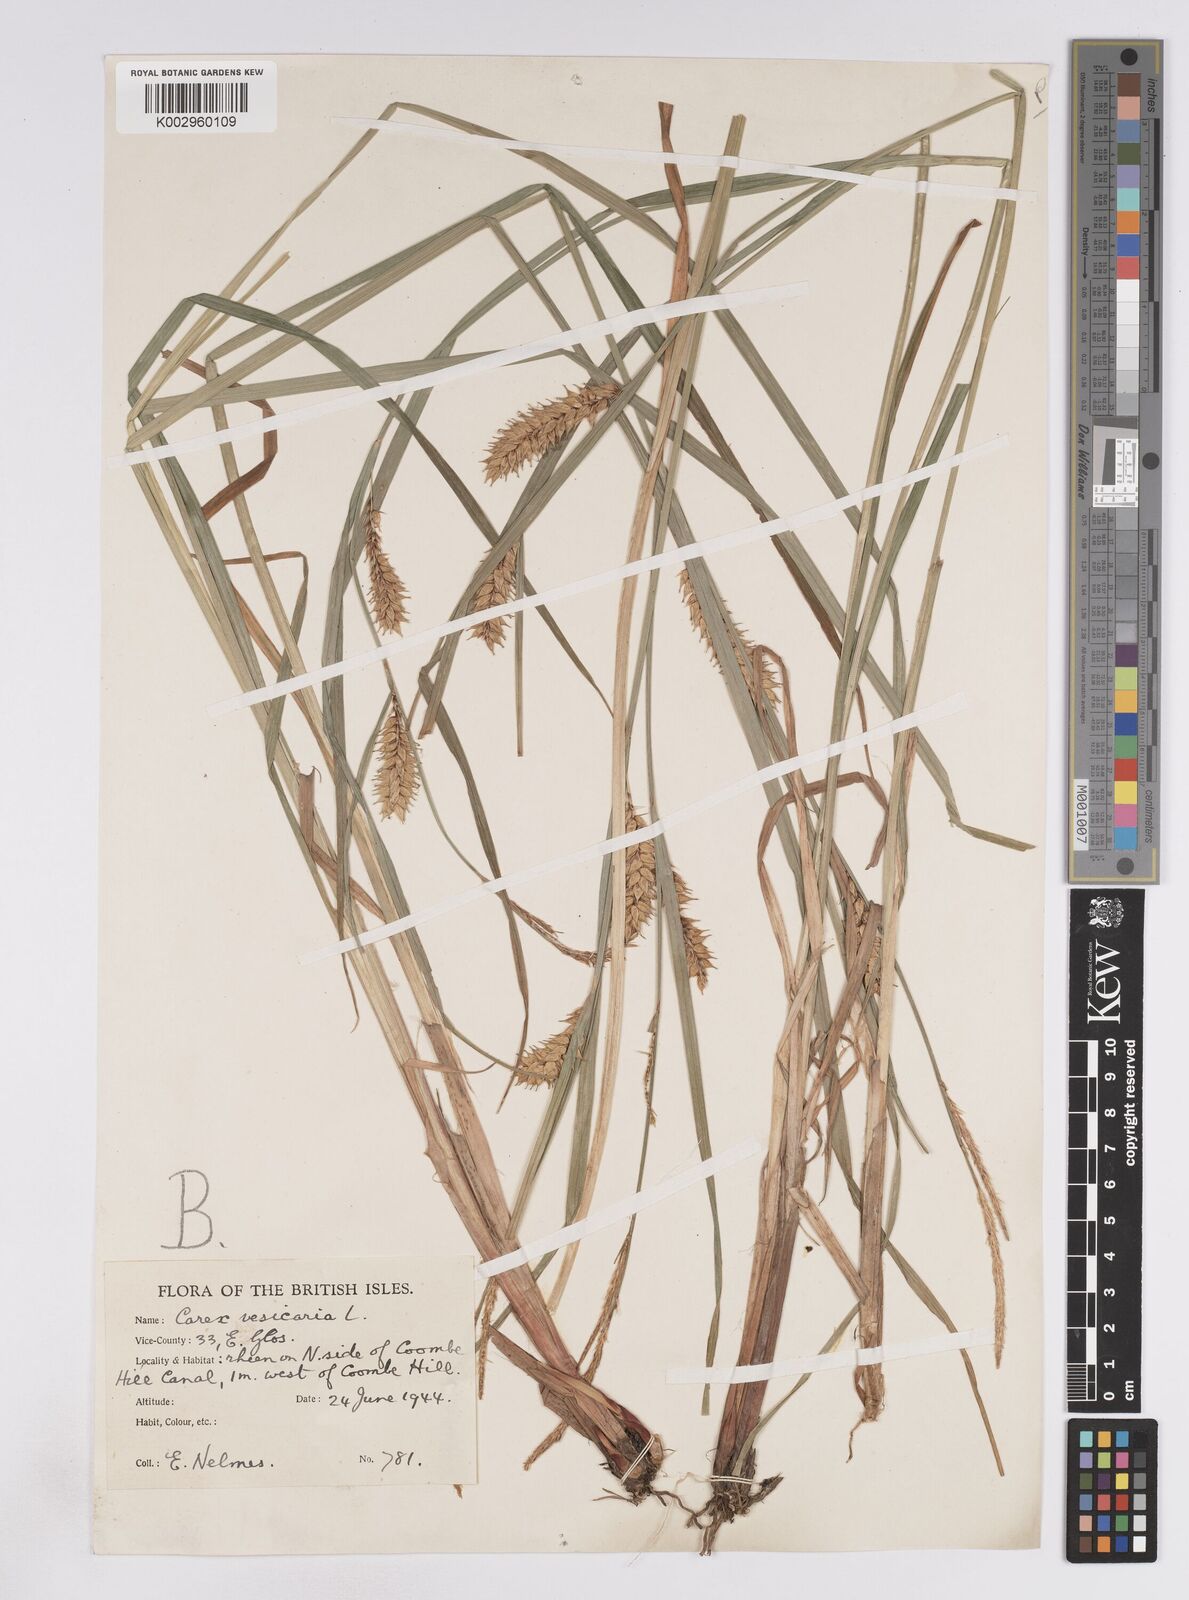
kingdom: Plantae
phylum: Tracheophyta
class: Liliopsida
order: Poales
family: Cyperaceae
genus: Carex
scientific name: Carex vesicaria
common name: Bladder-sedge
